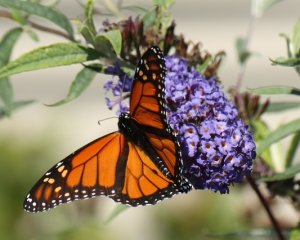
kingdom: Animalia
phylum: Arthropoda
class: Insecta
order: Lepidoptera
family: Nymphalidae
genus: Danaus
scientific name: Danaus plexippus
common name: Monarch
